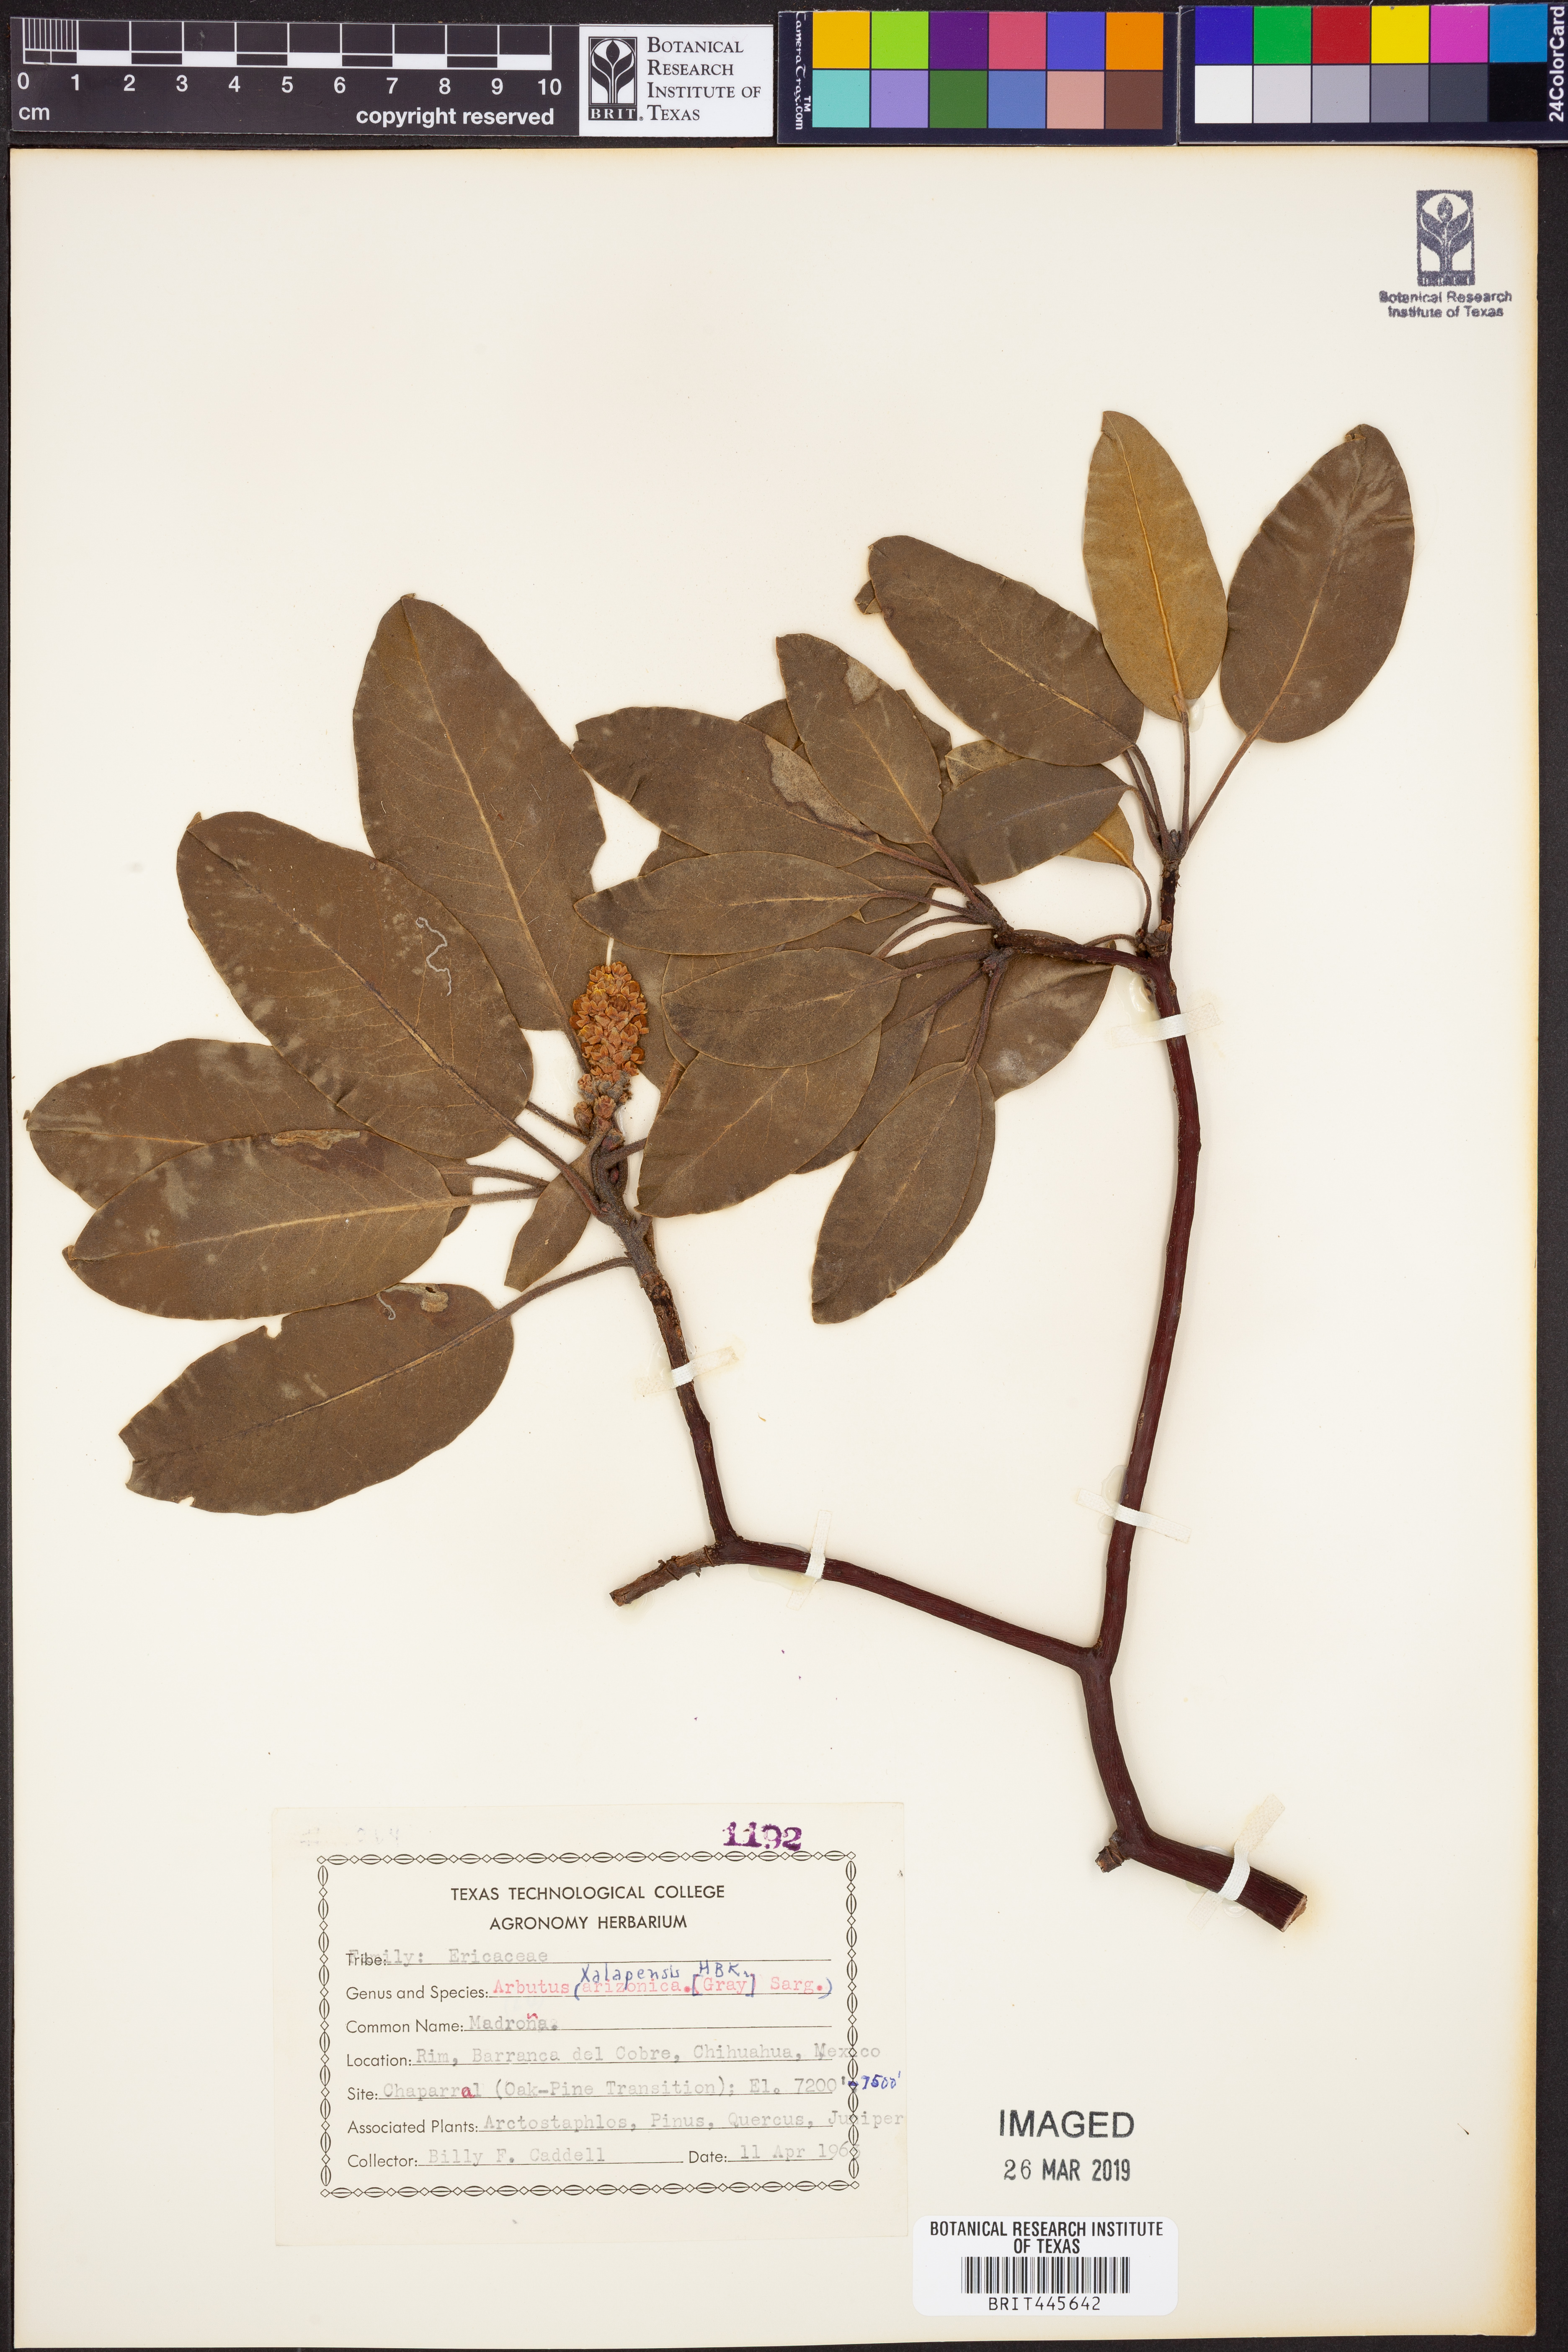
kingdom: Plantae
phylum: Tracheophyta
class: Magnoliopsida
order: Ericales
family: Ericaceae
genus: Arbutus
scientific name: Arbutus xalapensis
